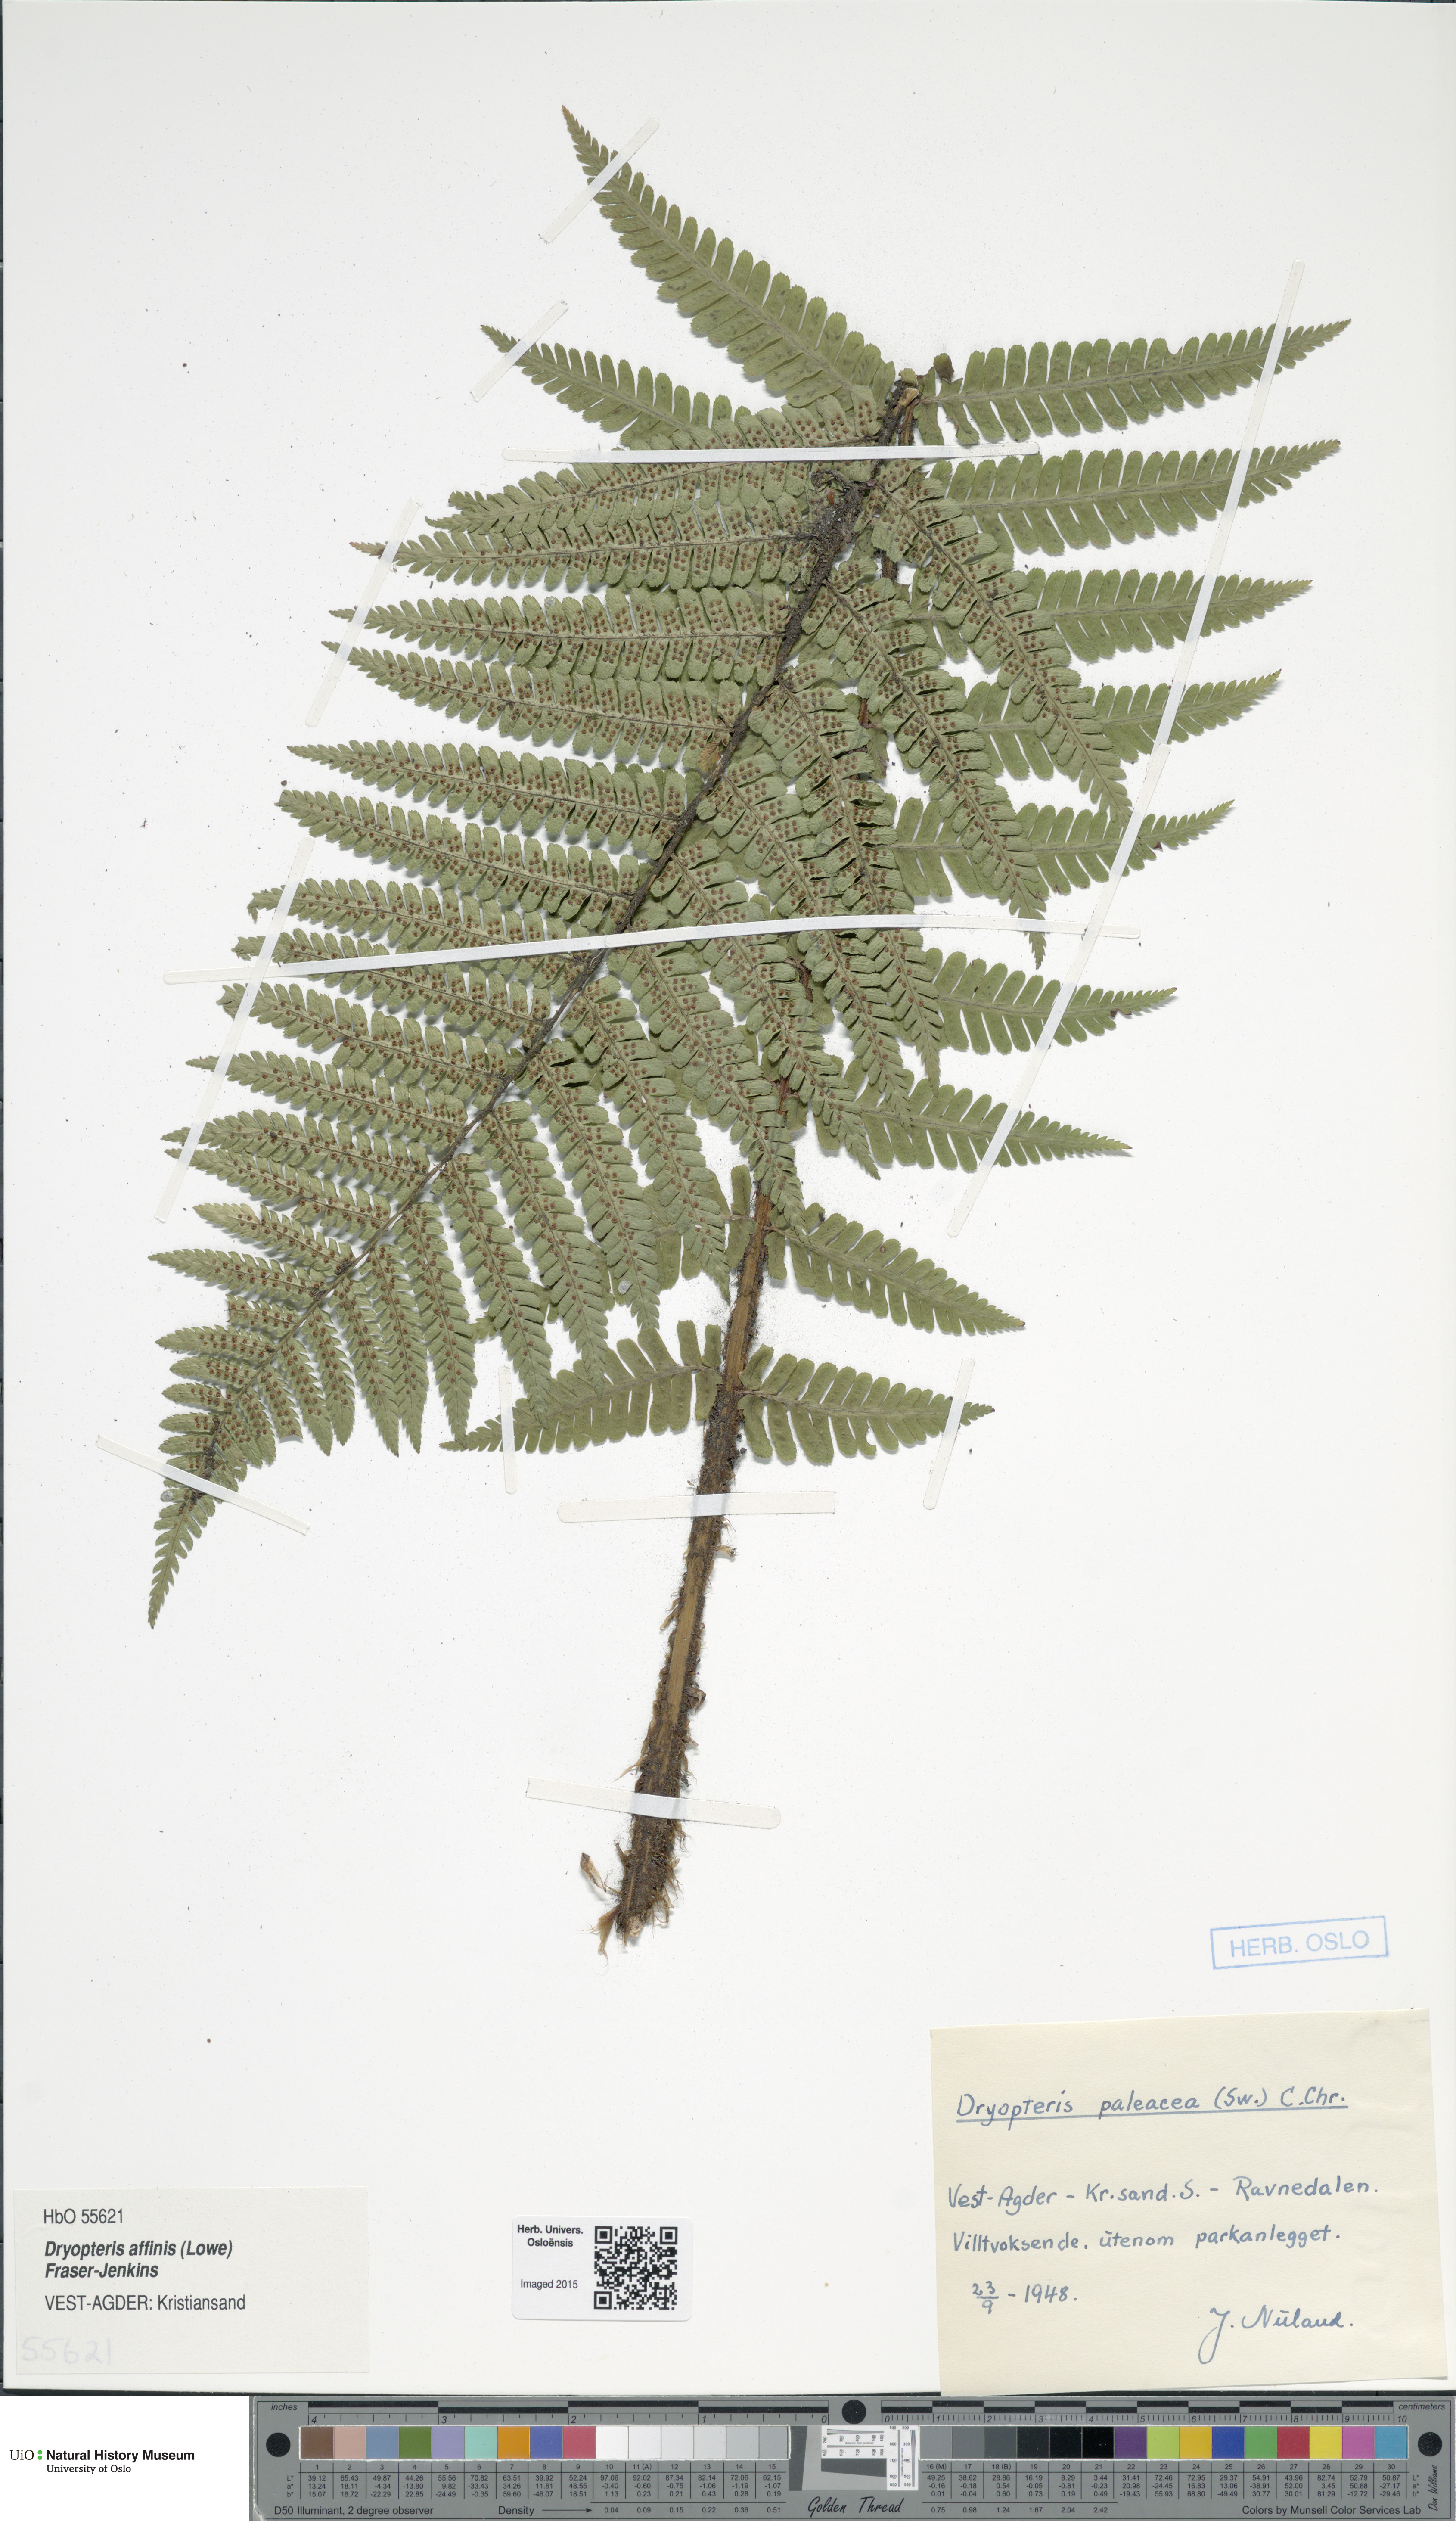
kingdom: Plantae
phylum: Tracheophyta
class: Polypodiopsida
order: Polypodiales
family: Dryopteridaceae
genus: Dryopteris
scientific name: Dryopteris wallichiana
